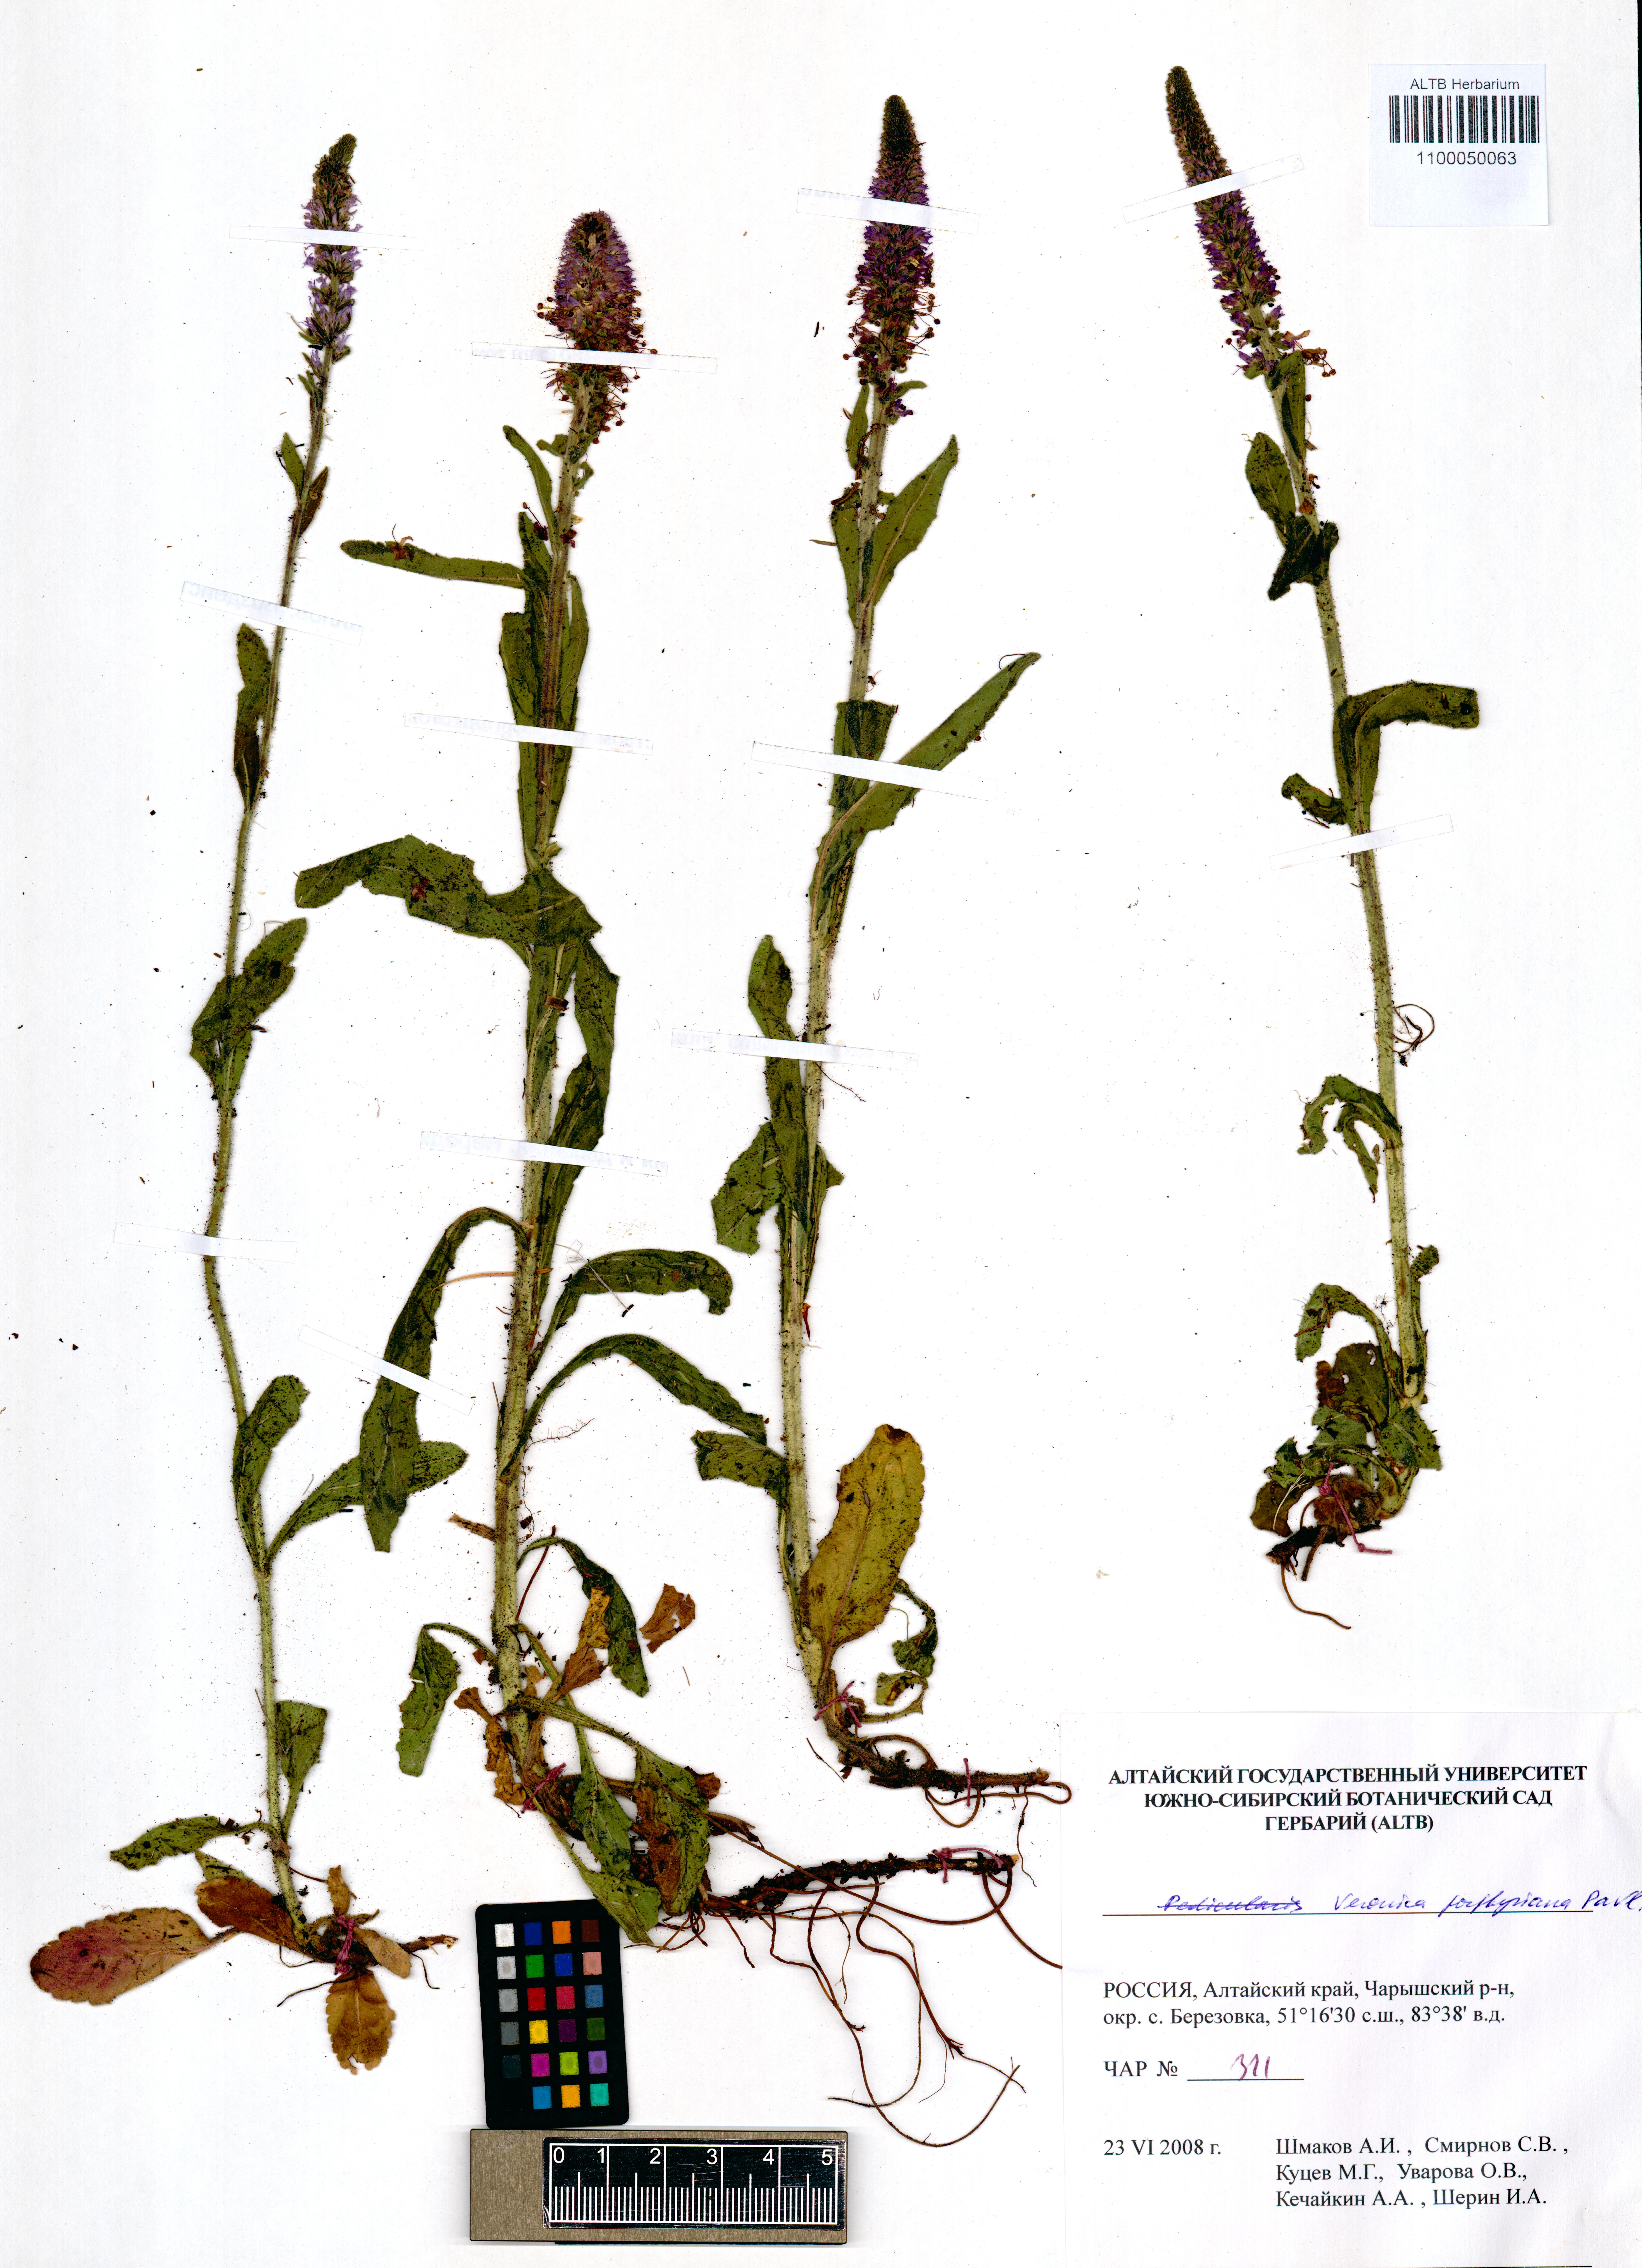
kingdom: Plantae
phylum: Tracheophyta
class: Magnoliopsida
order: Lamiales
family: Plantaginaceae
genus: Veronica
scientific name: Veronica porphyriana
